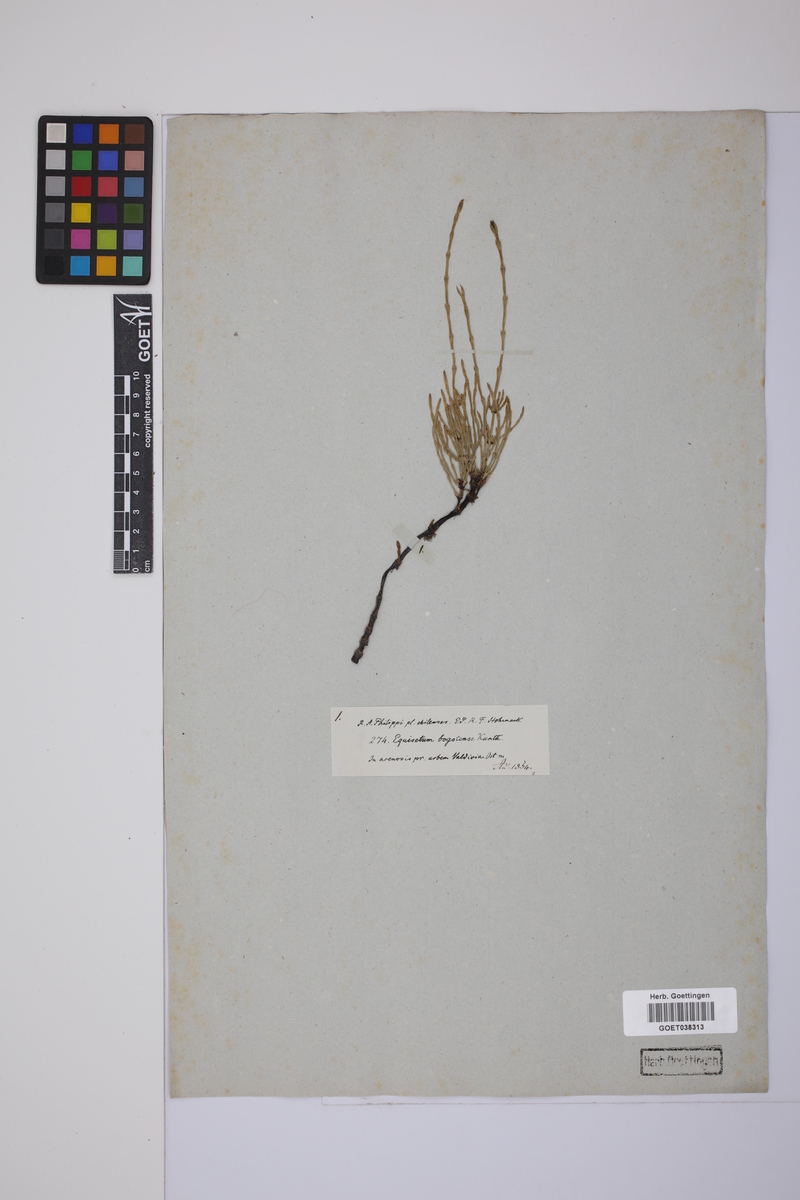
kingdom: Plantae
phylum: Tracheophyta
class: Polypodiopsida
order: Equisetales
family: Equisetaceae
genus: Equisetum
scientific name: Equisetum bogotense
